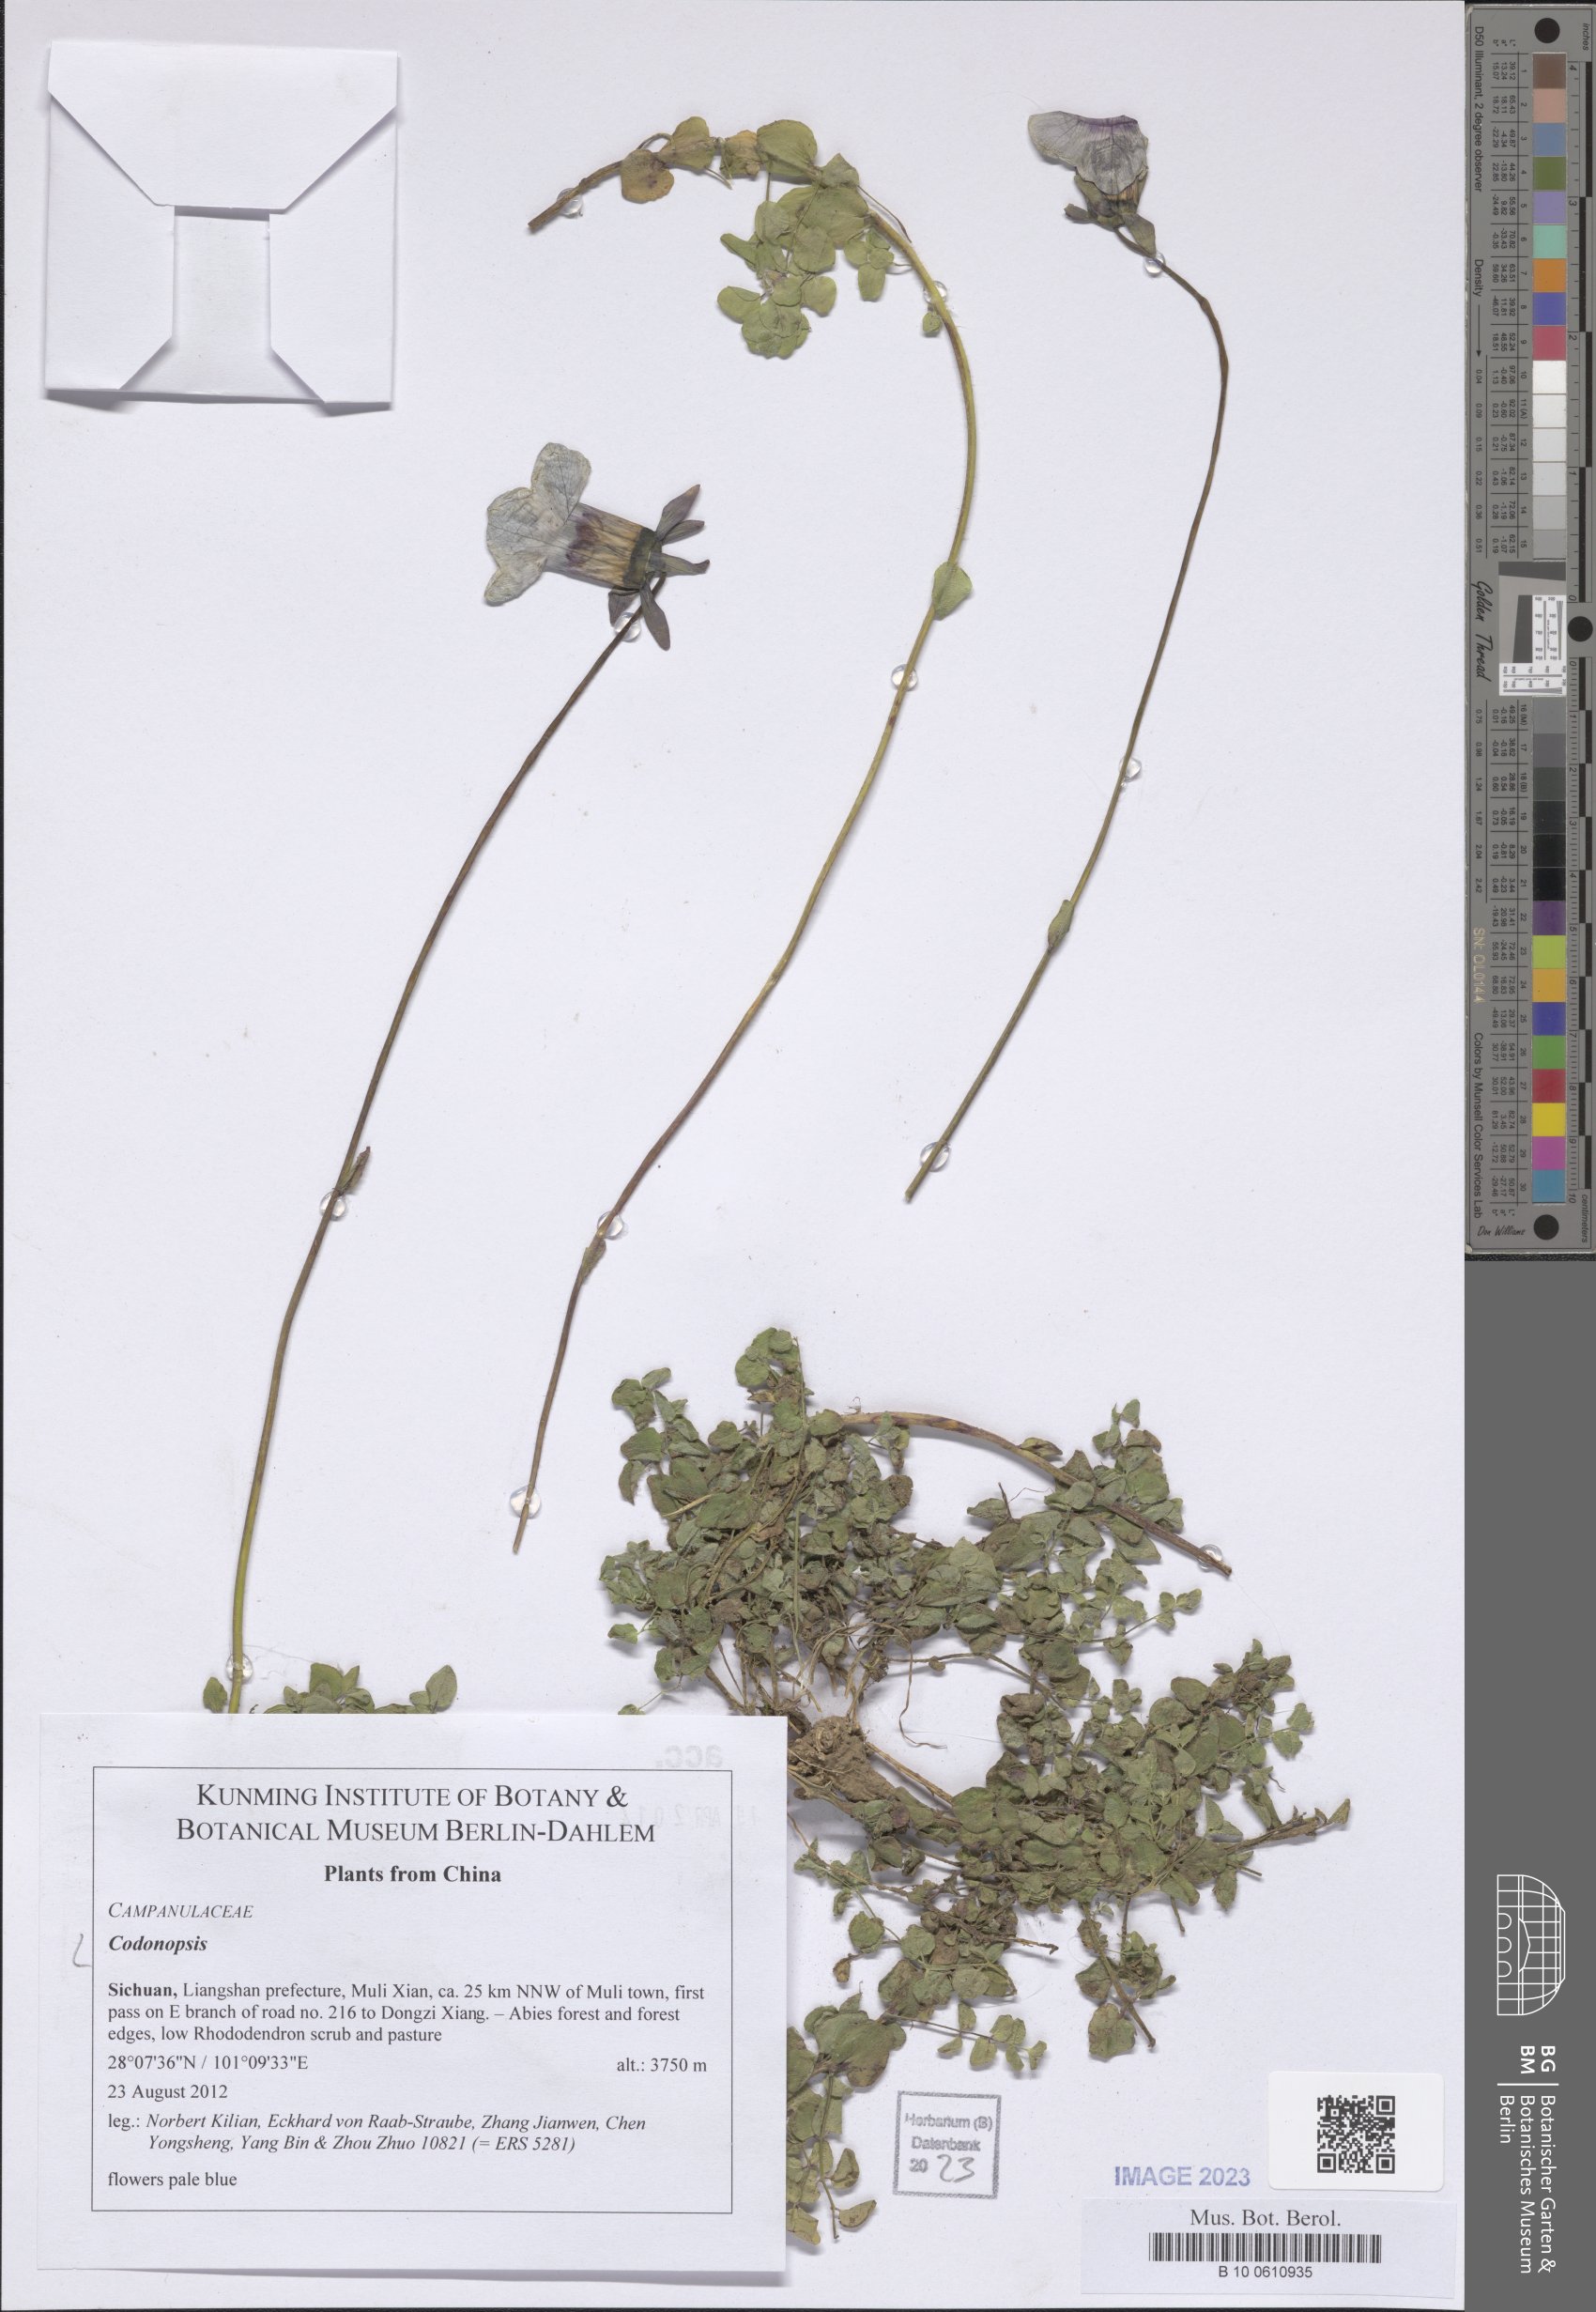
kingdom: Plantae
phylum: Tracheophyta
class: Magnoliopsida
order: Asterales
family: Campanulaceae
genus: Codonopsis
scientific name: Codonopsis
